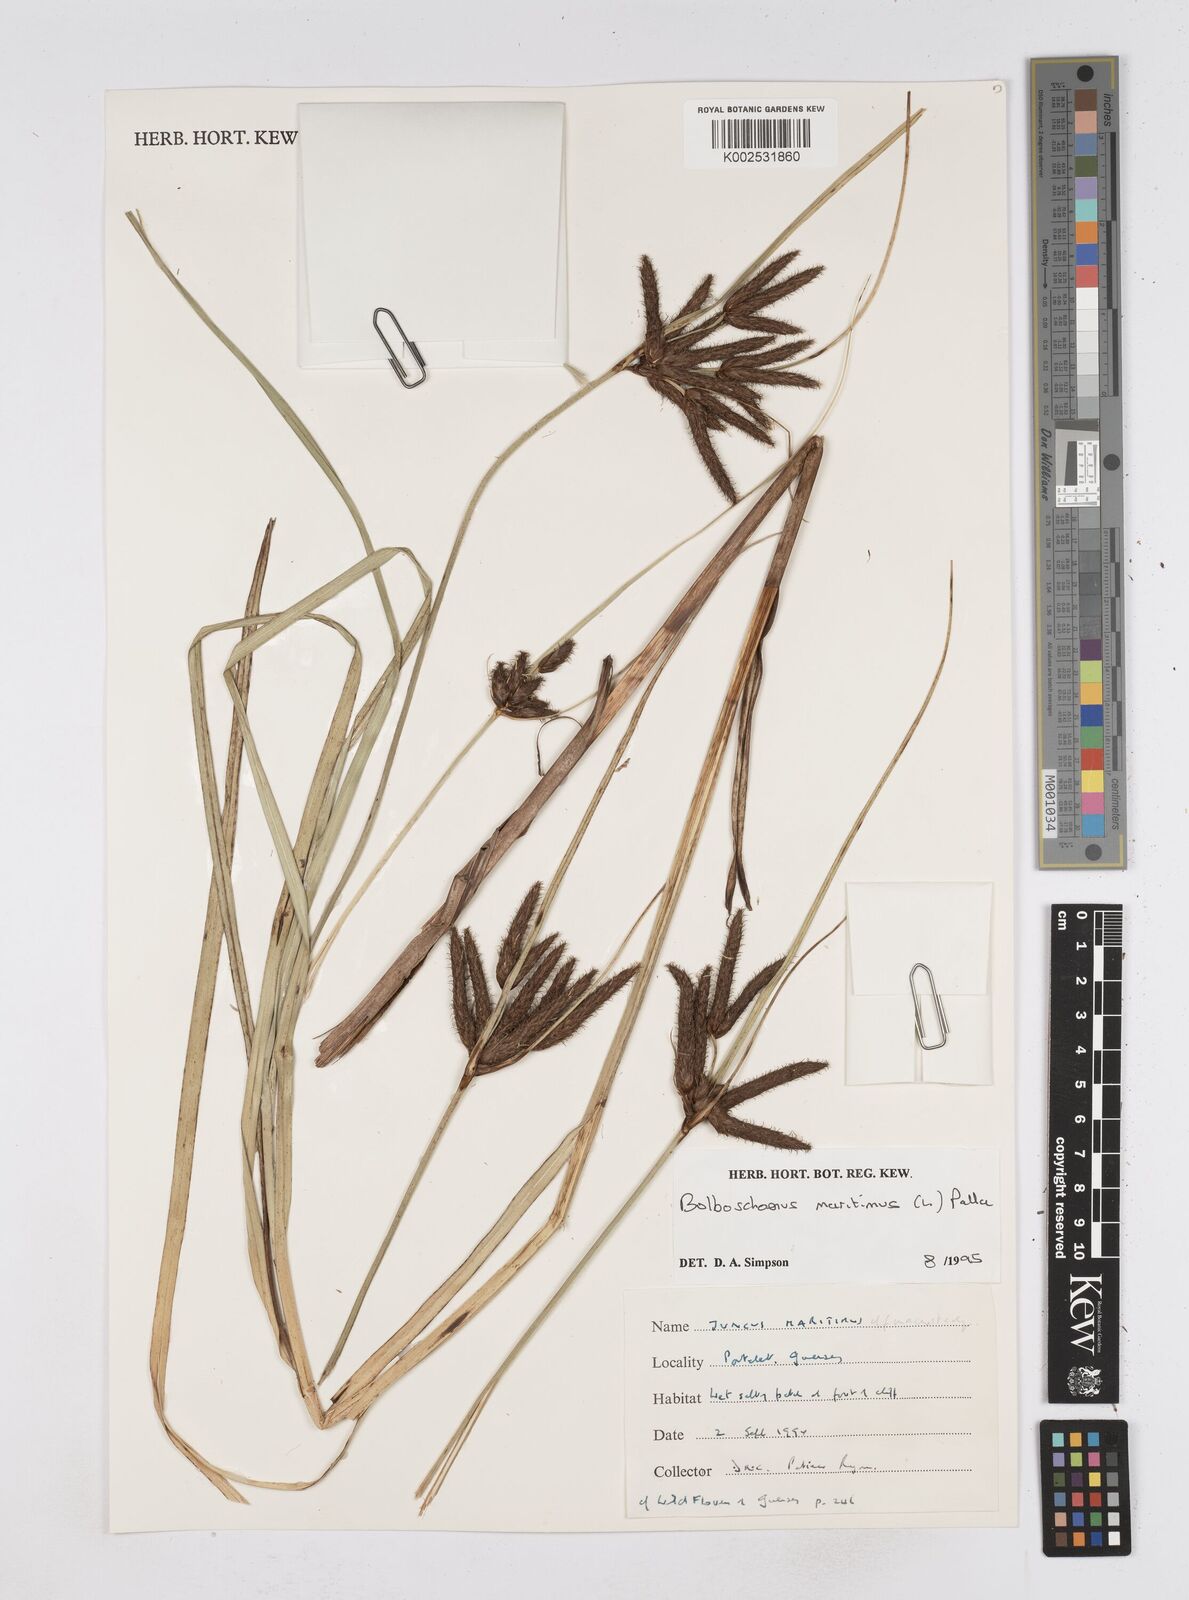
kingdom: Plantae
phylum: Tracheophyta
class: Liliopsida
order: Poales
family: Cyperaceae
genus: Bolboschoenus
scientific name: Bolboschoenus maritimus
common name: Sea club-rush
